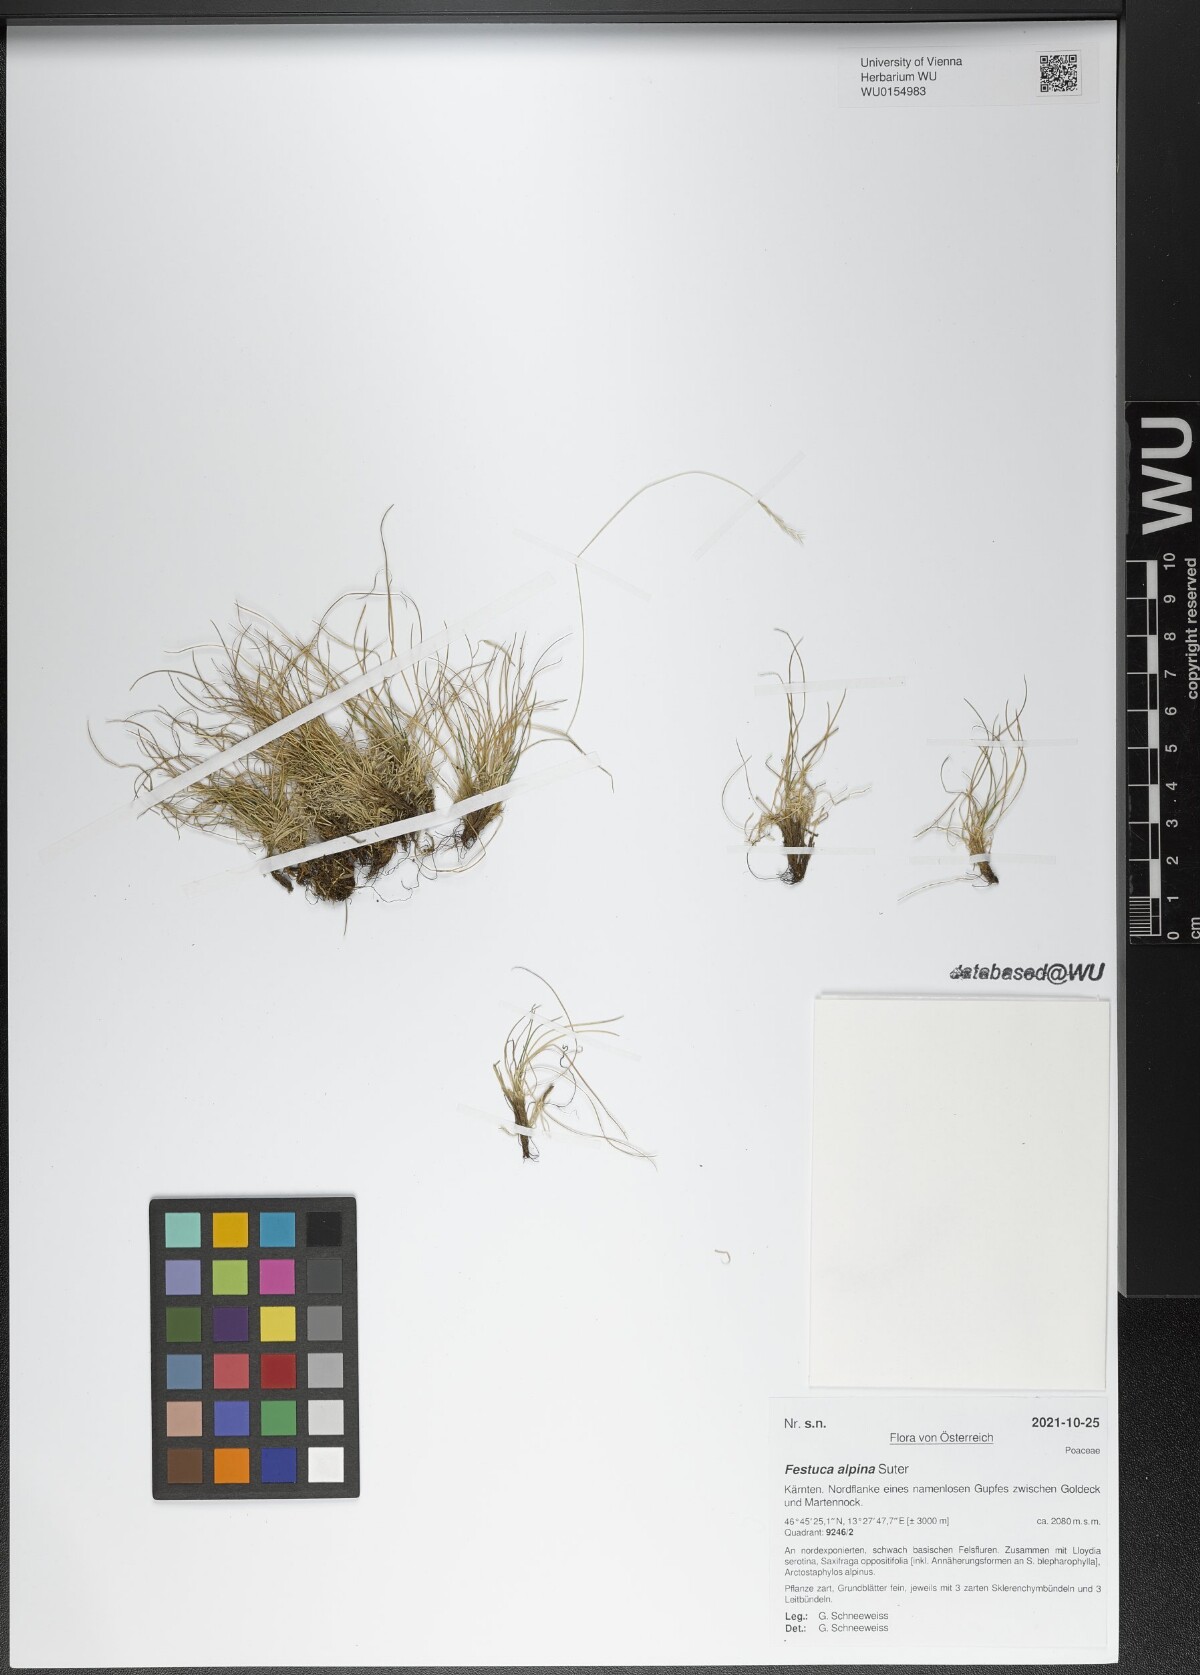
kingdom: Plantae
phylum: Tracheophyta
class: Liliopsida
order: Poales
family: Poaceae
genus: Festuca
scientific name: Festuca alpina
